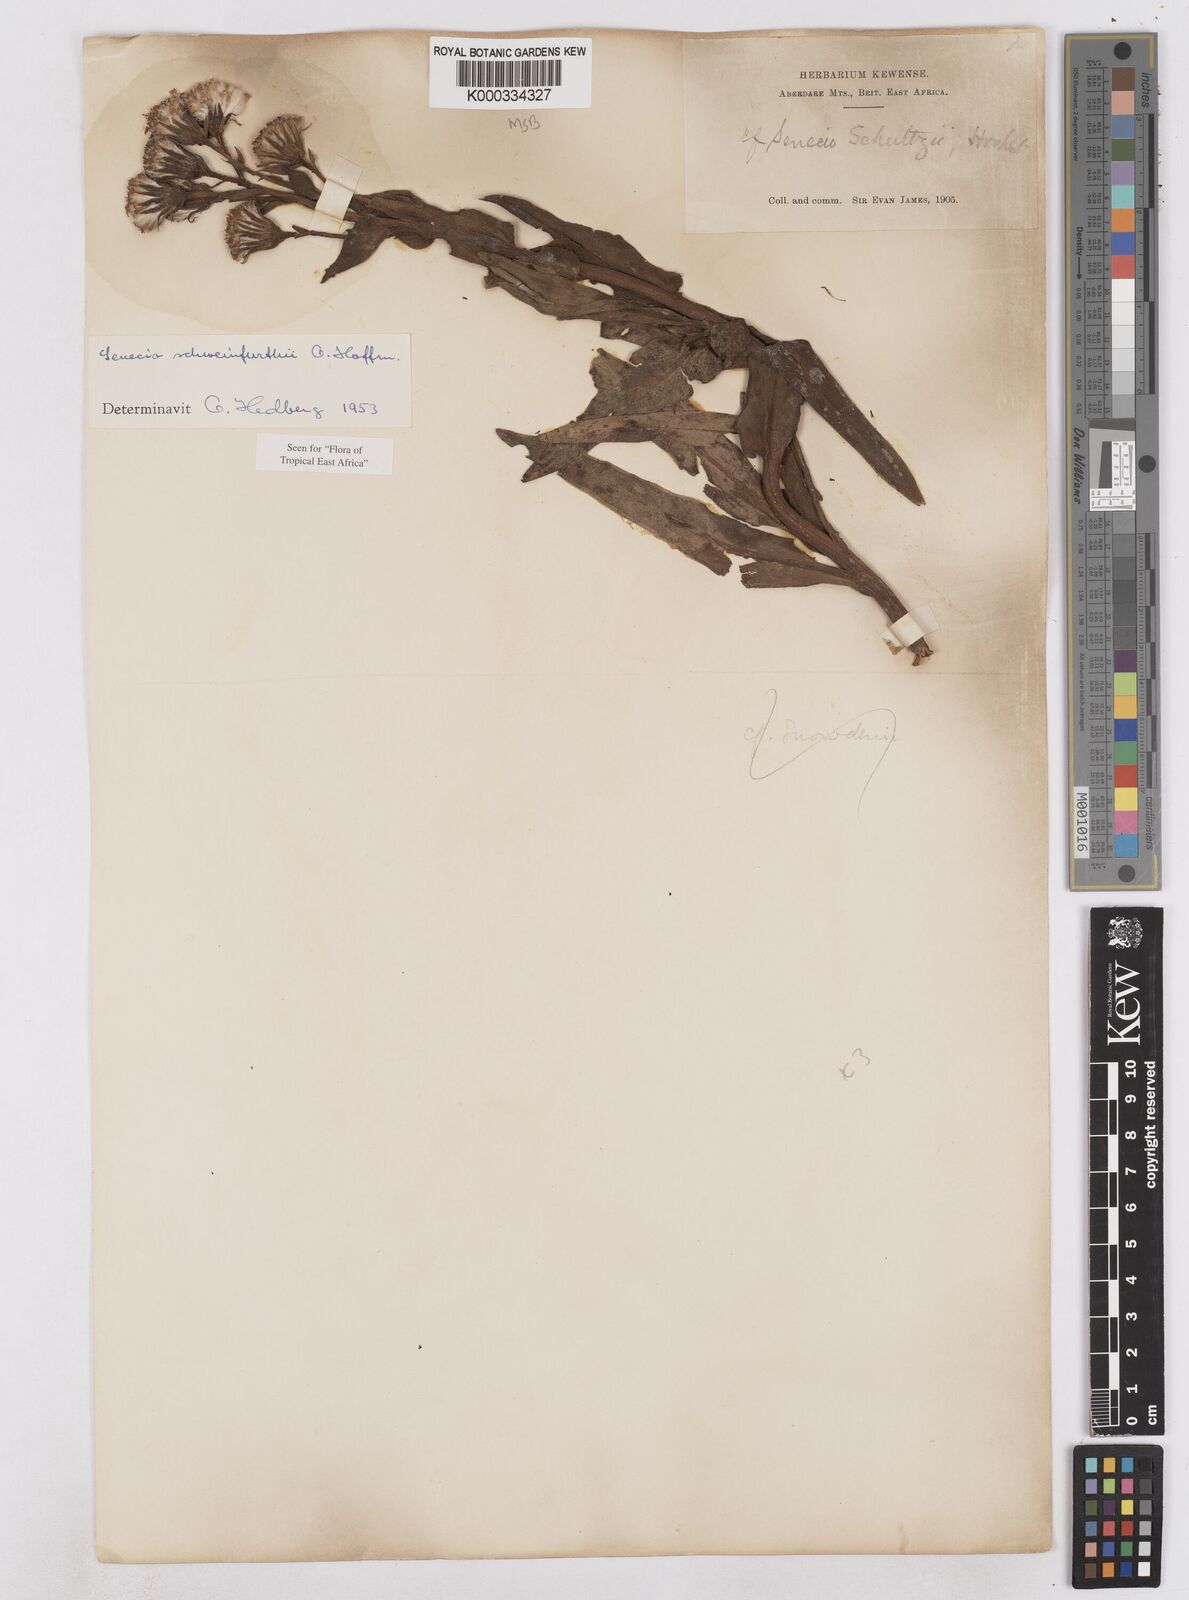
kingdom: Plantae
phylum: Tracheophyta
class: Magnoliopsida
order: Asterales
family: Asteraceae
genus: Senecio
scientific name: Senecio schweinfurthii
